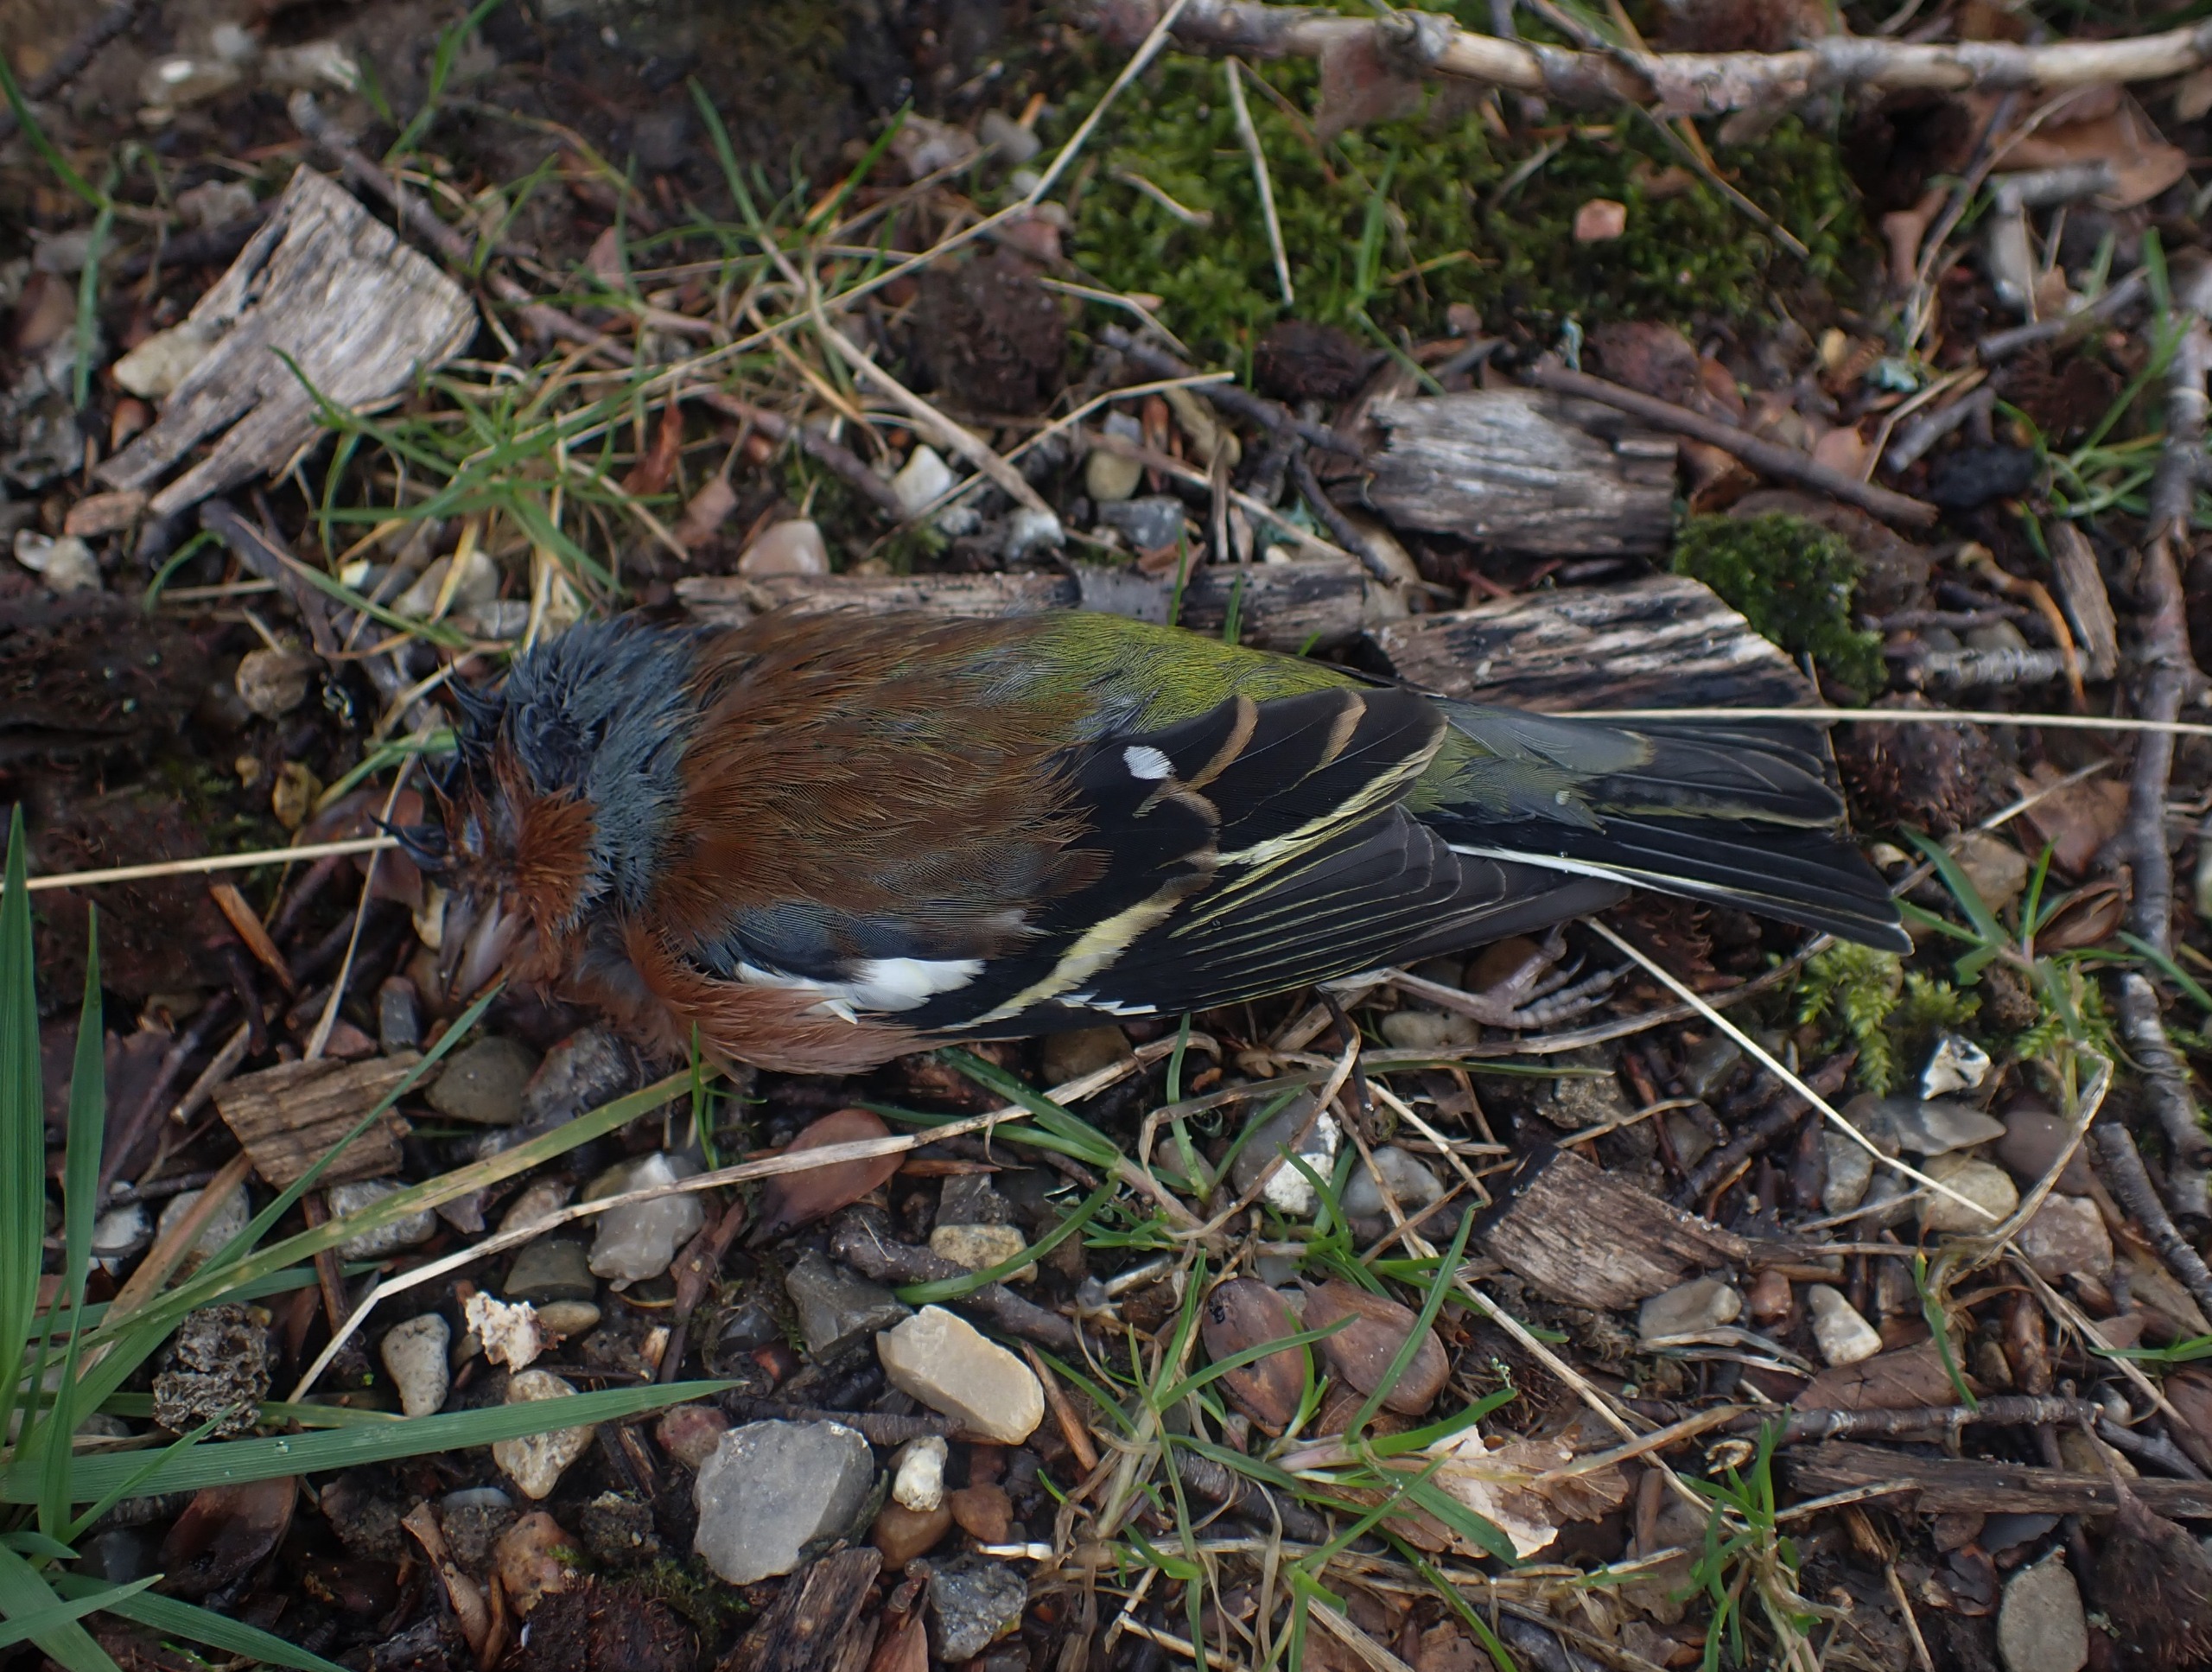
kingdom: Animalia
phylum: Chordata
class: Aves
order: Passeriformes
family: Fringillidae
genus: Fringilla
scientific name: Fringilla coelebs
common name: Bogfinke
